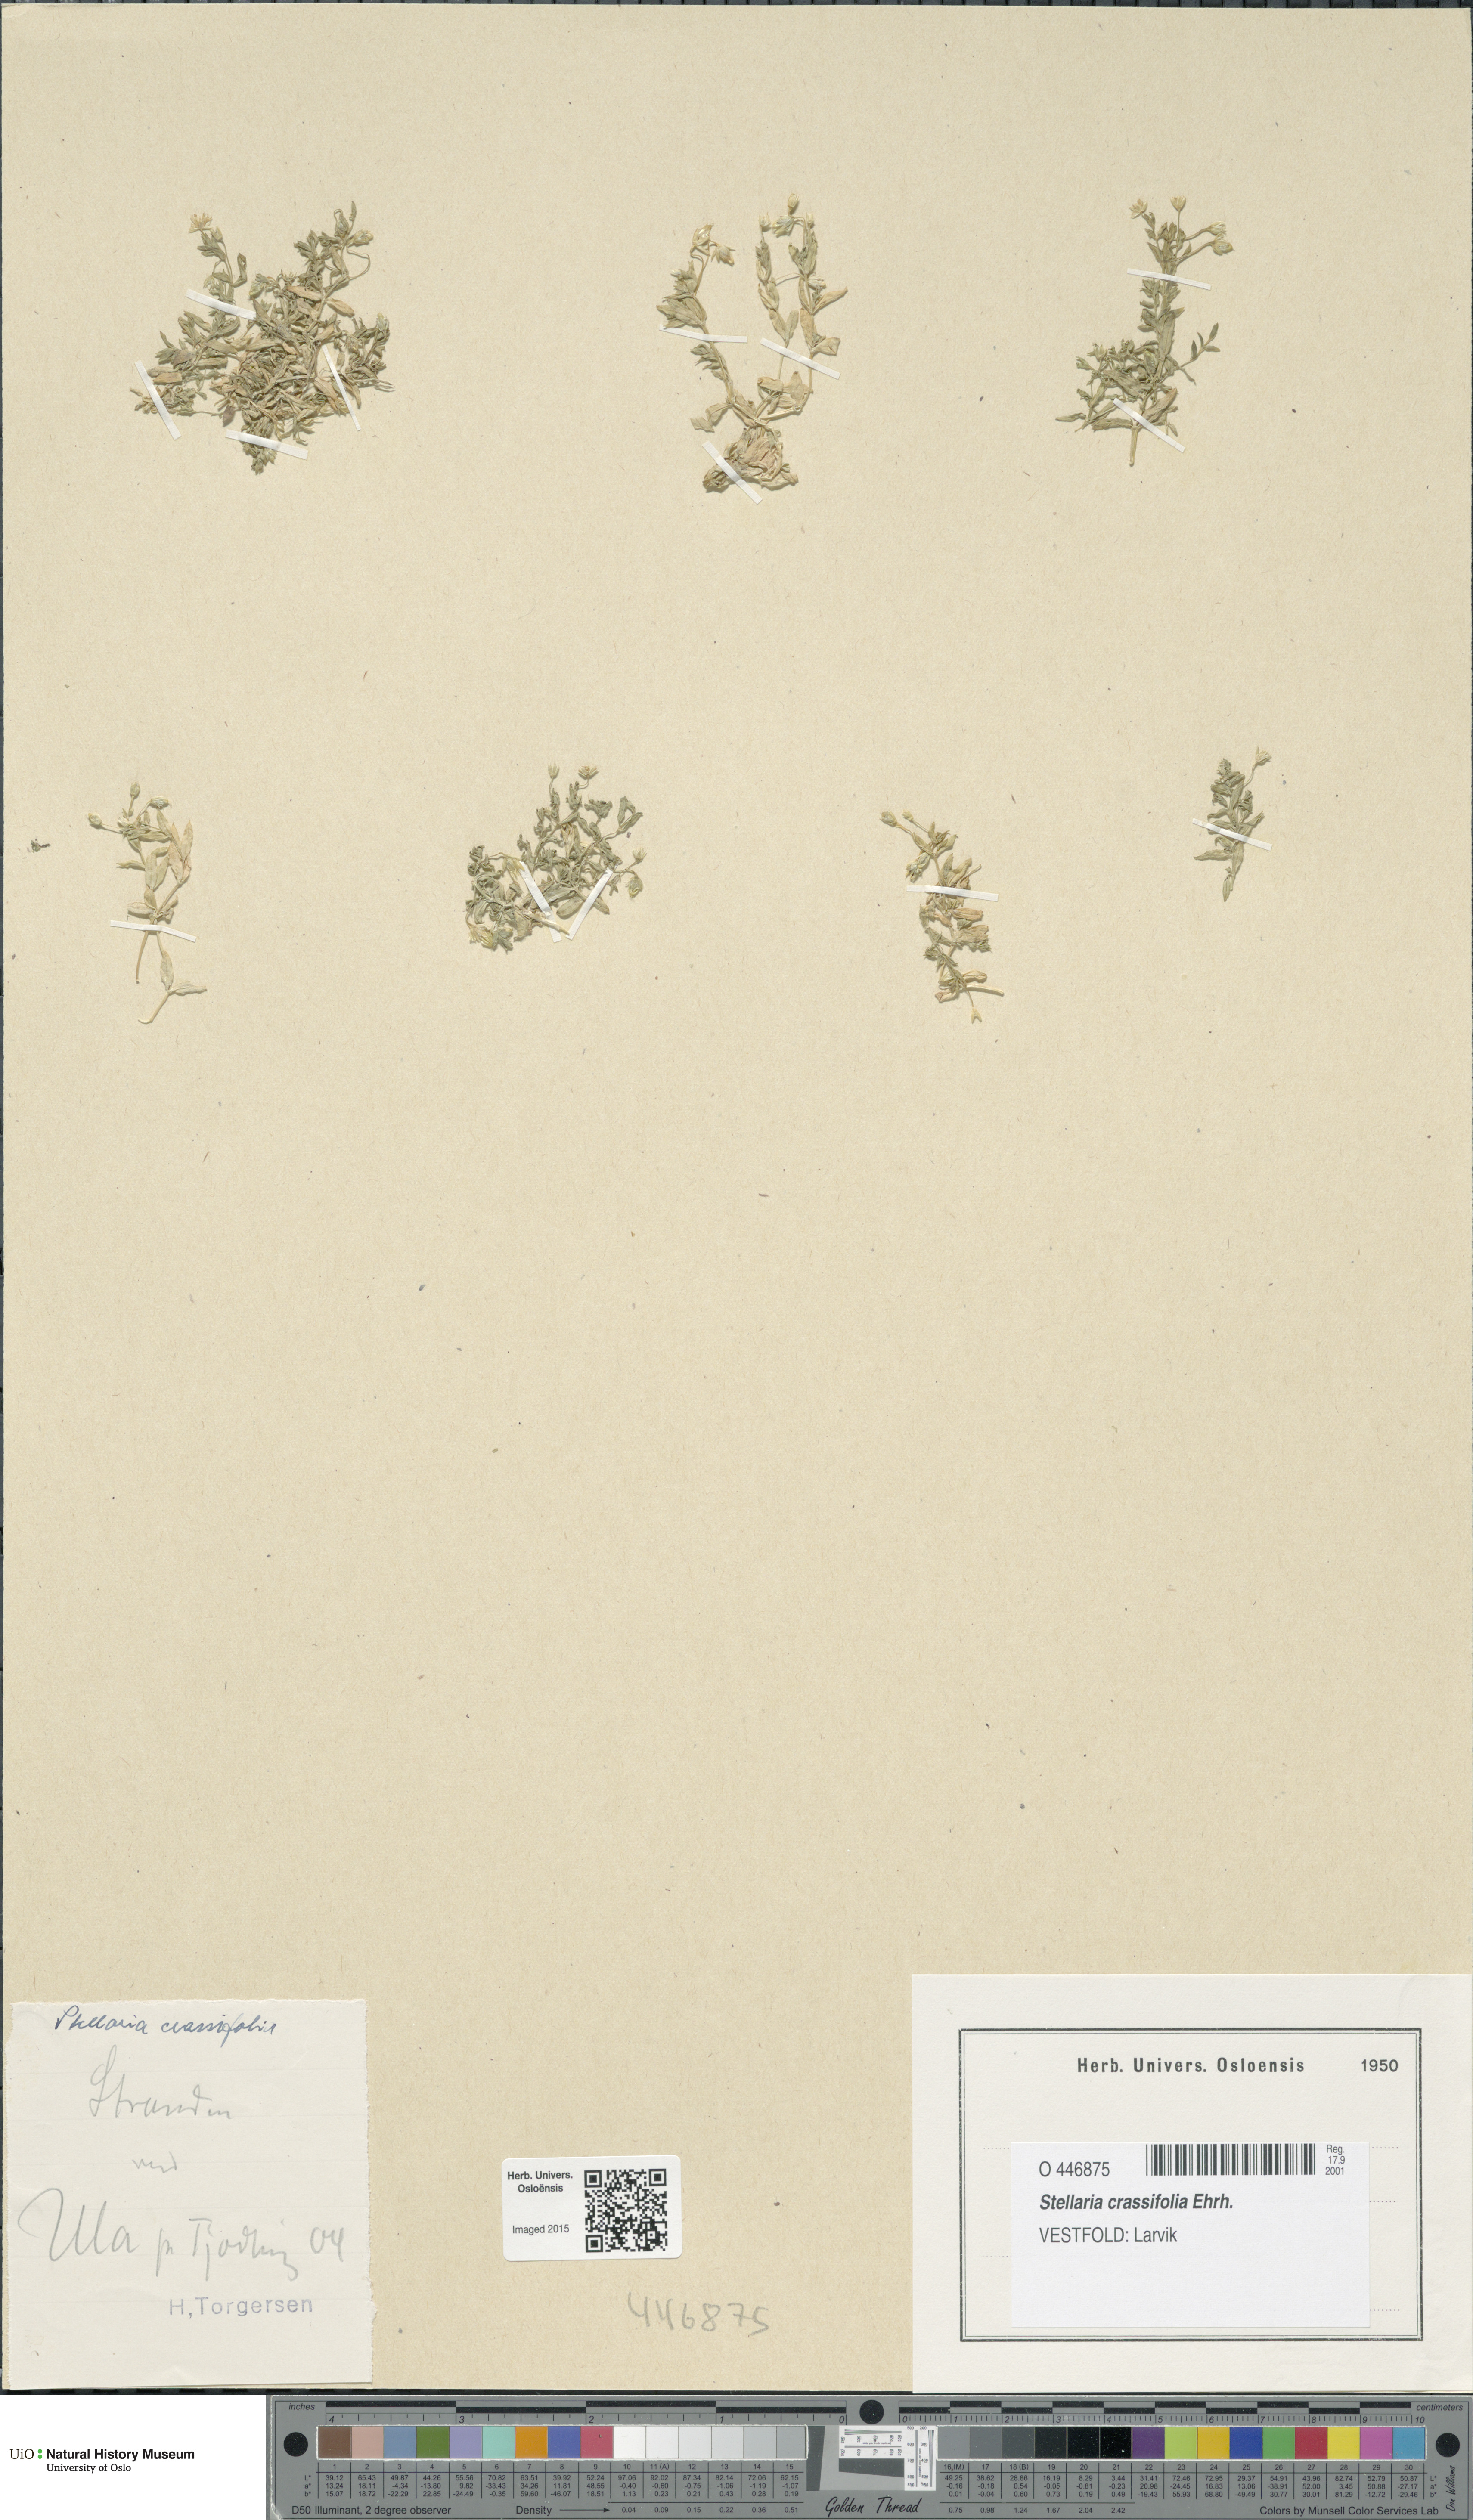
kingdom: Plantae
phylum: Tracheophyta
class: Magnoliopsida
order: Caryophyllales
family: Caryophyllaceae
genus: Stellaria
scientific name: Stellaria crassifolia
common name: Fleshy starwort
